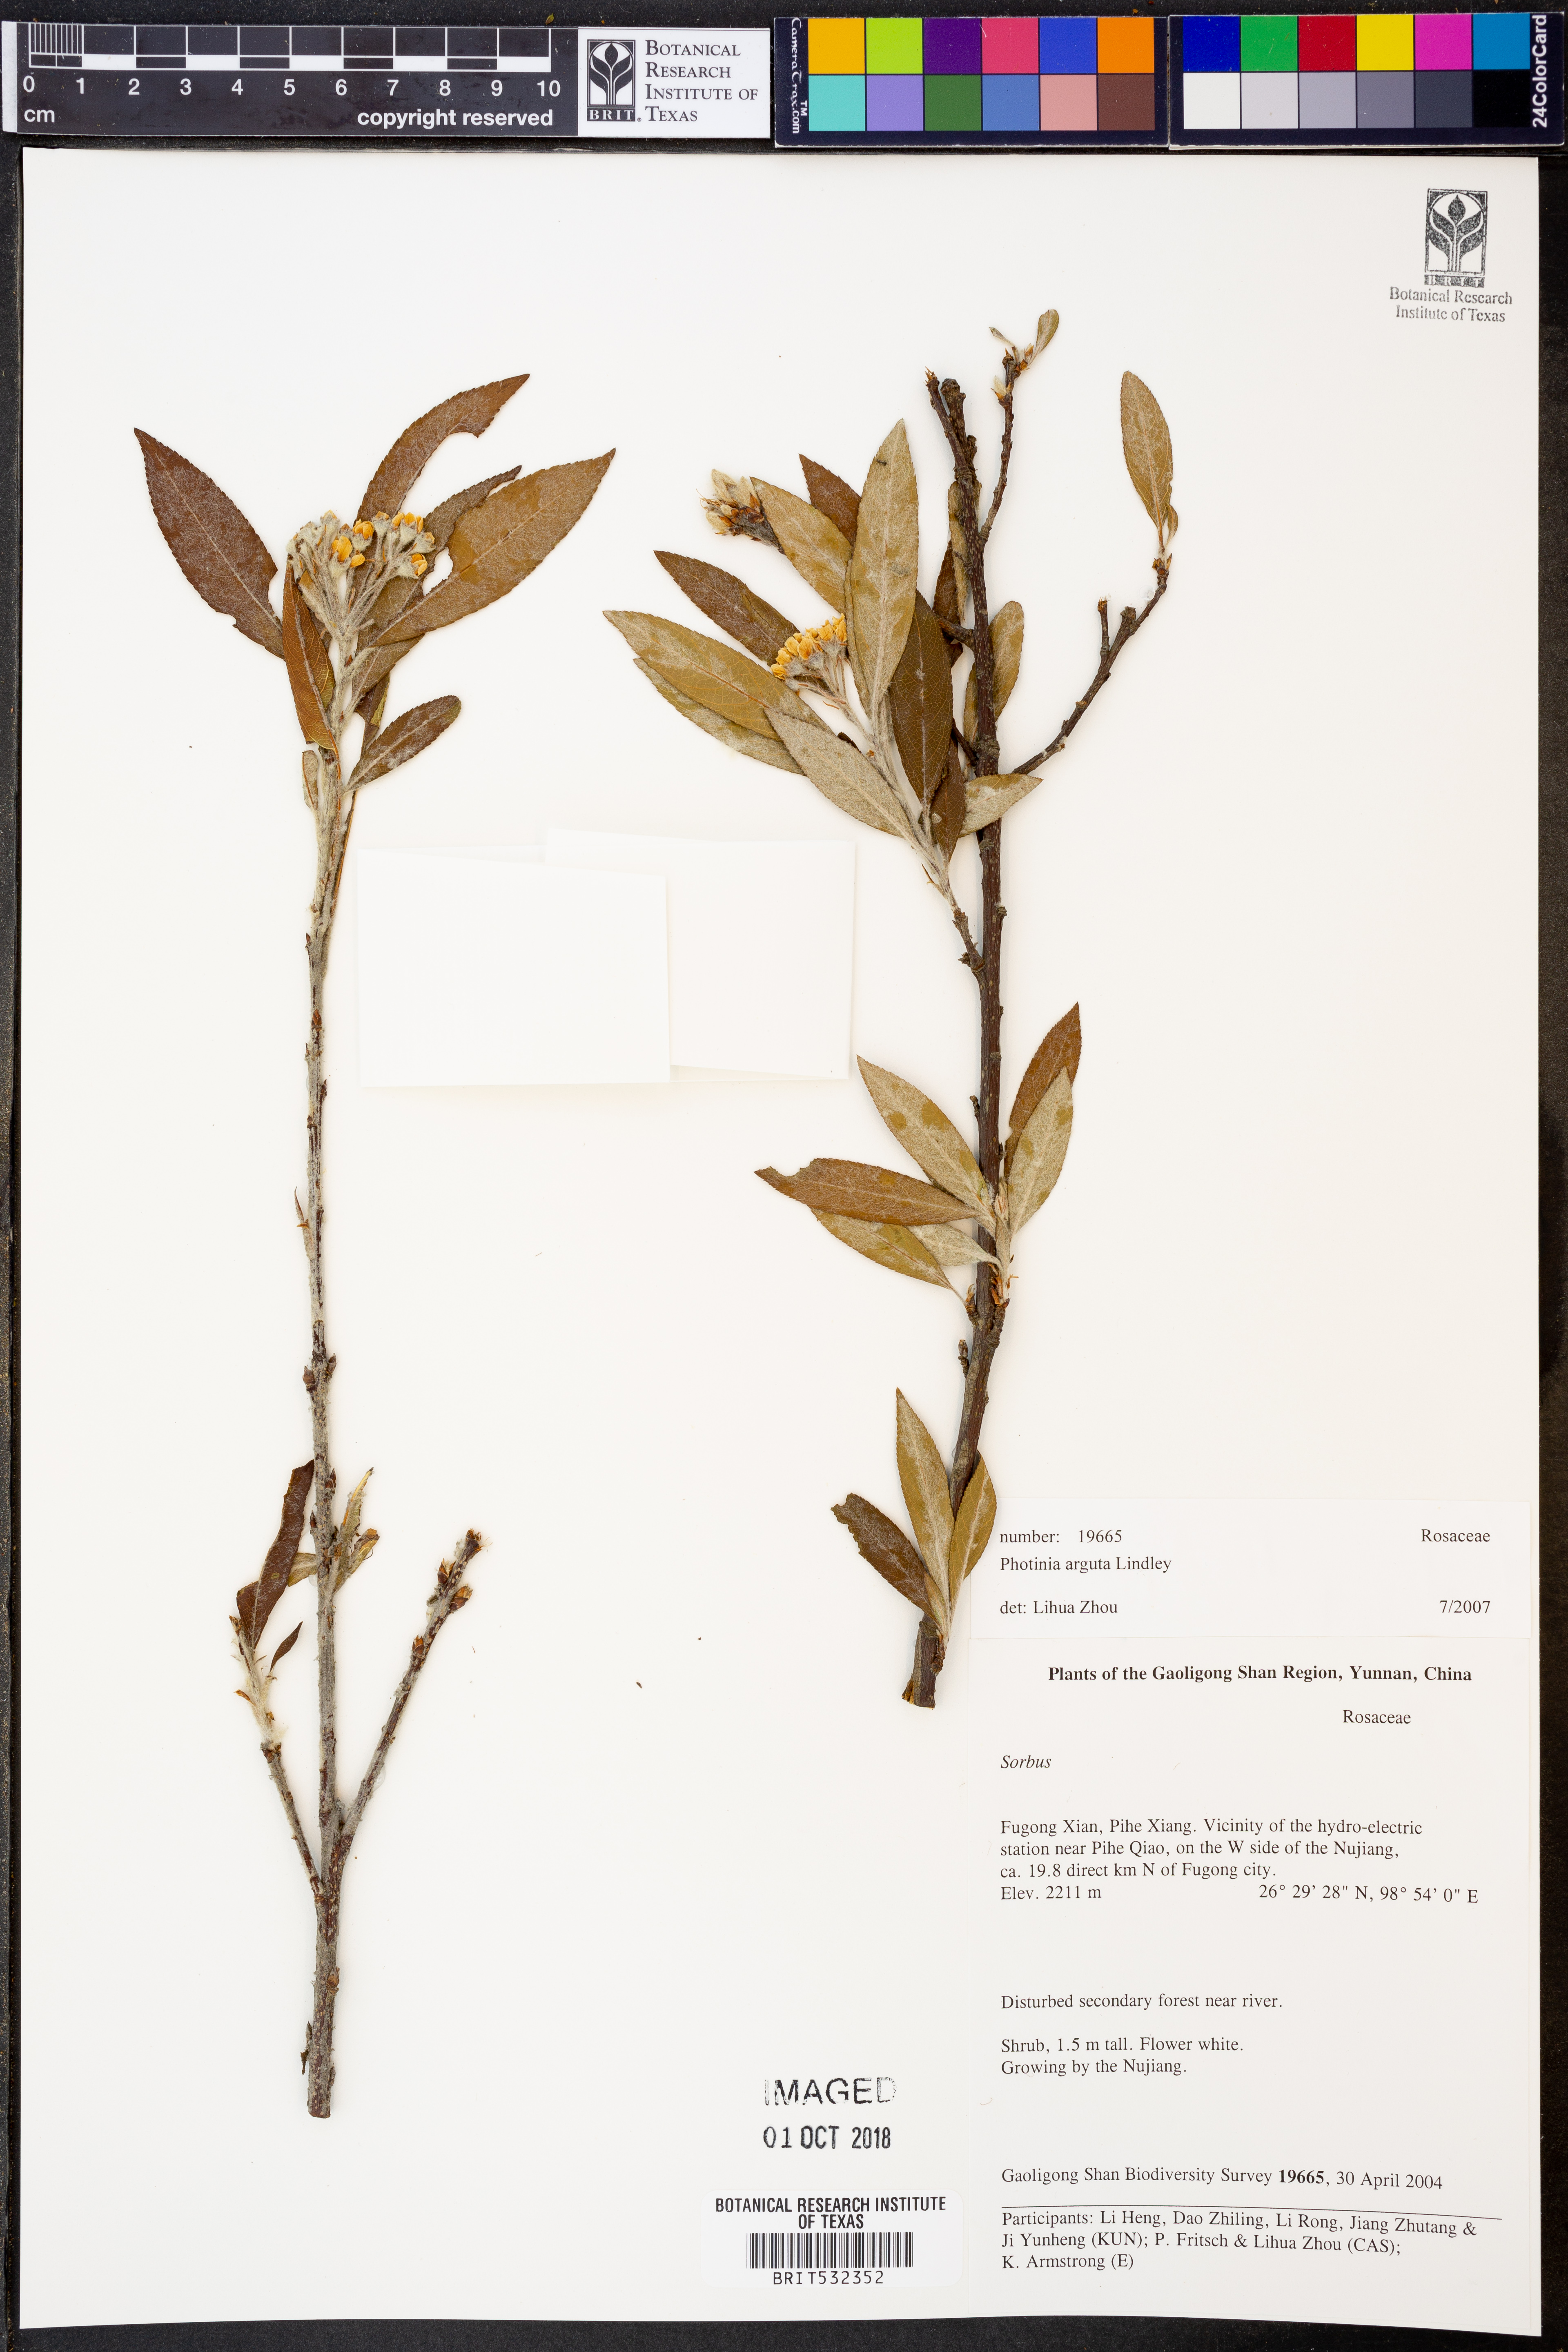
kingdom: Plantae
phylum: Tracheophyta
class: Magnoliopsida
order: Rosales
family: Rosaceae
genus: Pourthiaea
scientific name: Pourthiaea arguta
